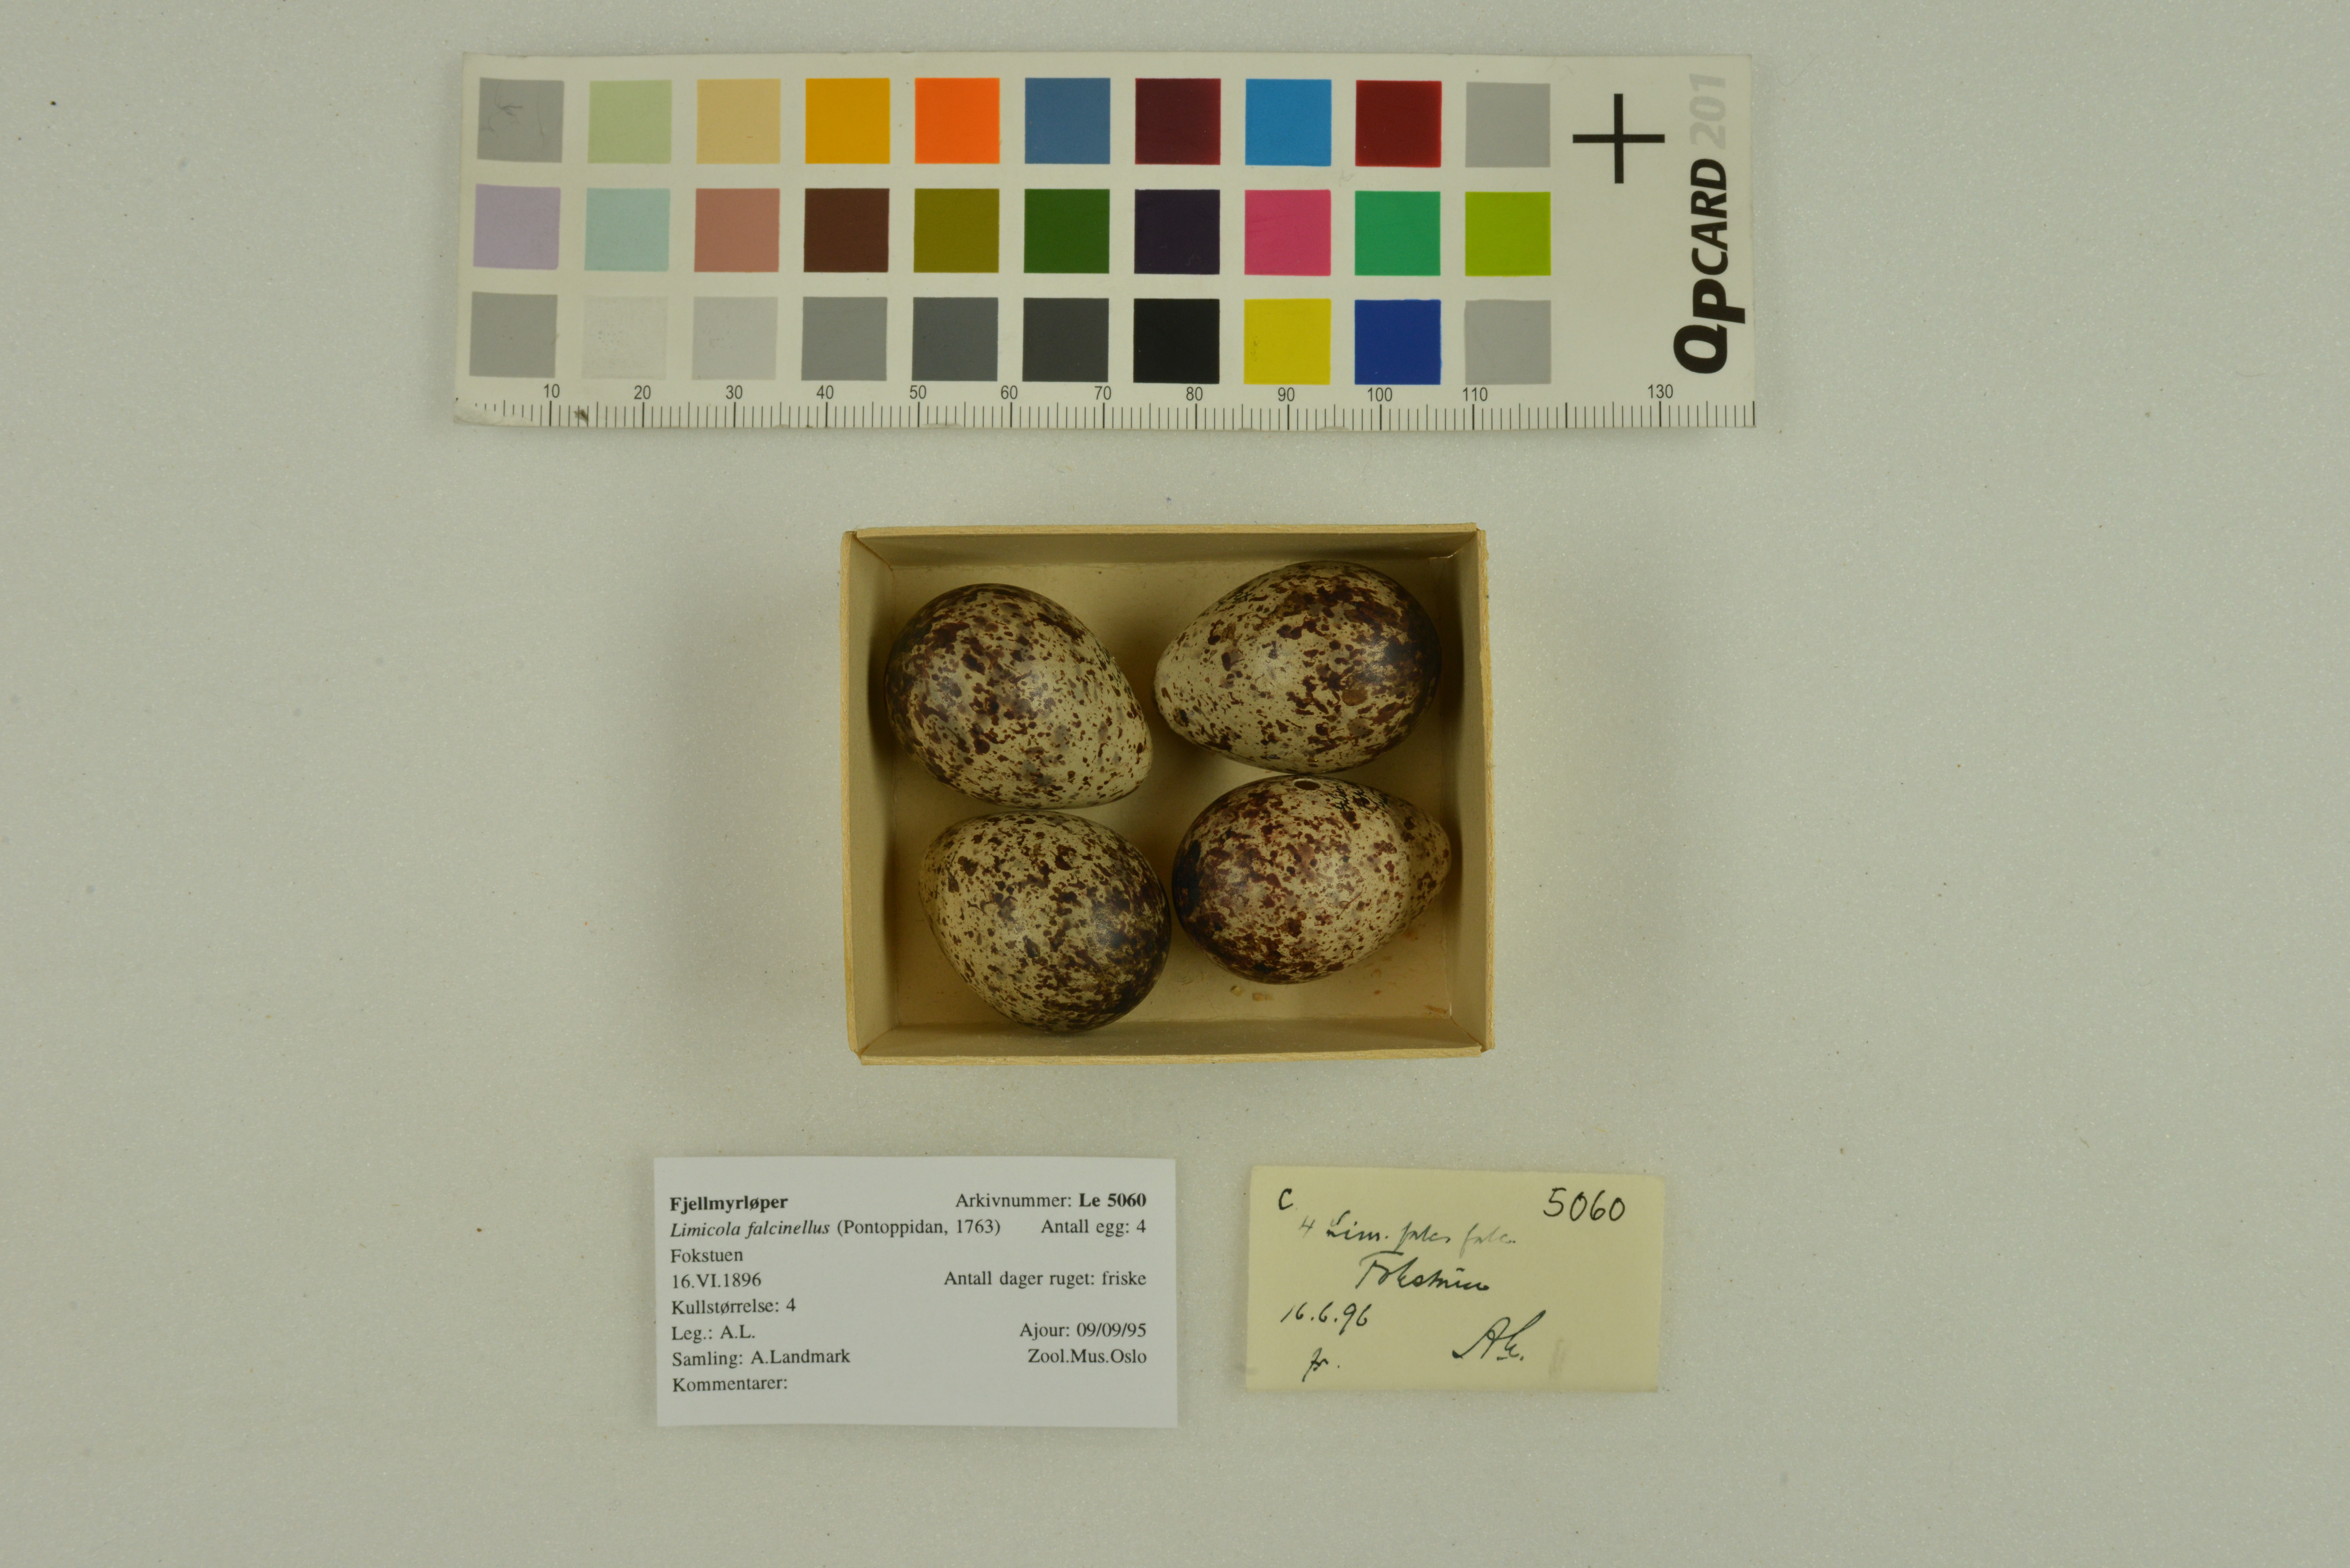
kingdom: Animalia
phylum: Chordata
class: Aves
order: Charadriiformes
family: Scolopacidae
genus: Calidris
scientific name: Calidris falcinellus
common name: Broad-billed sandpiper
